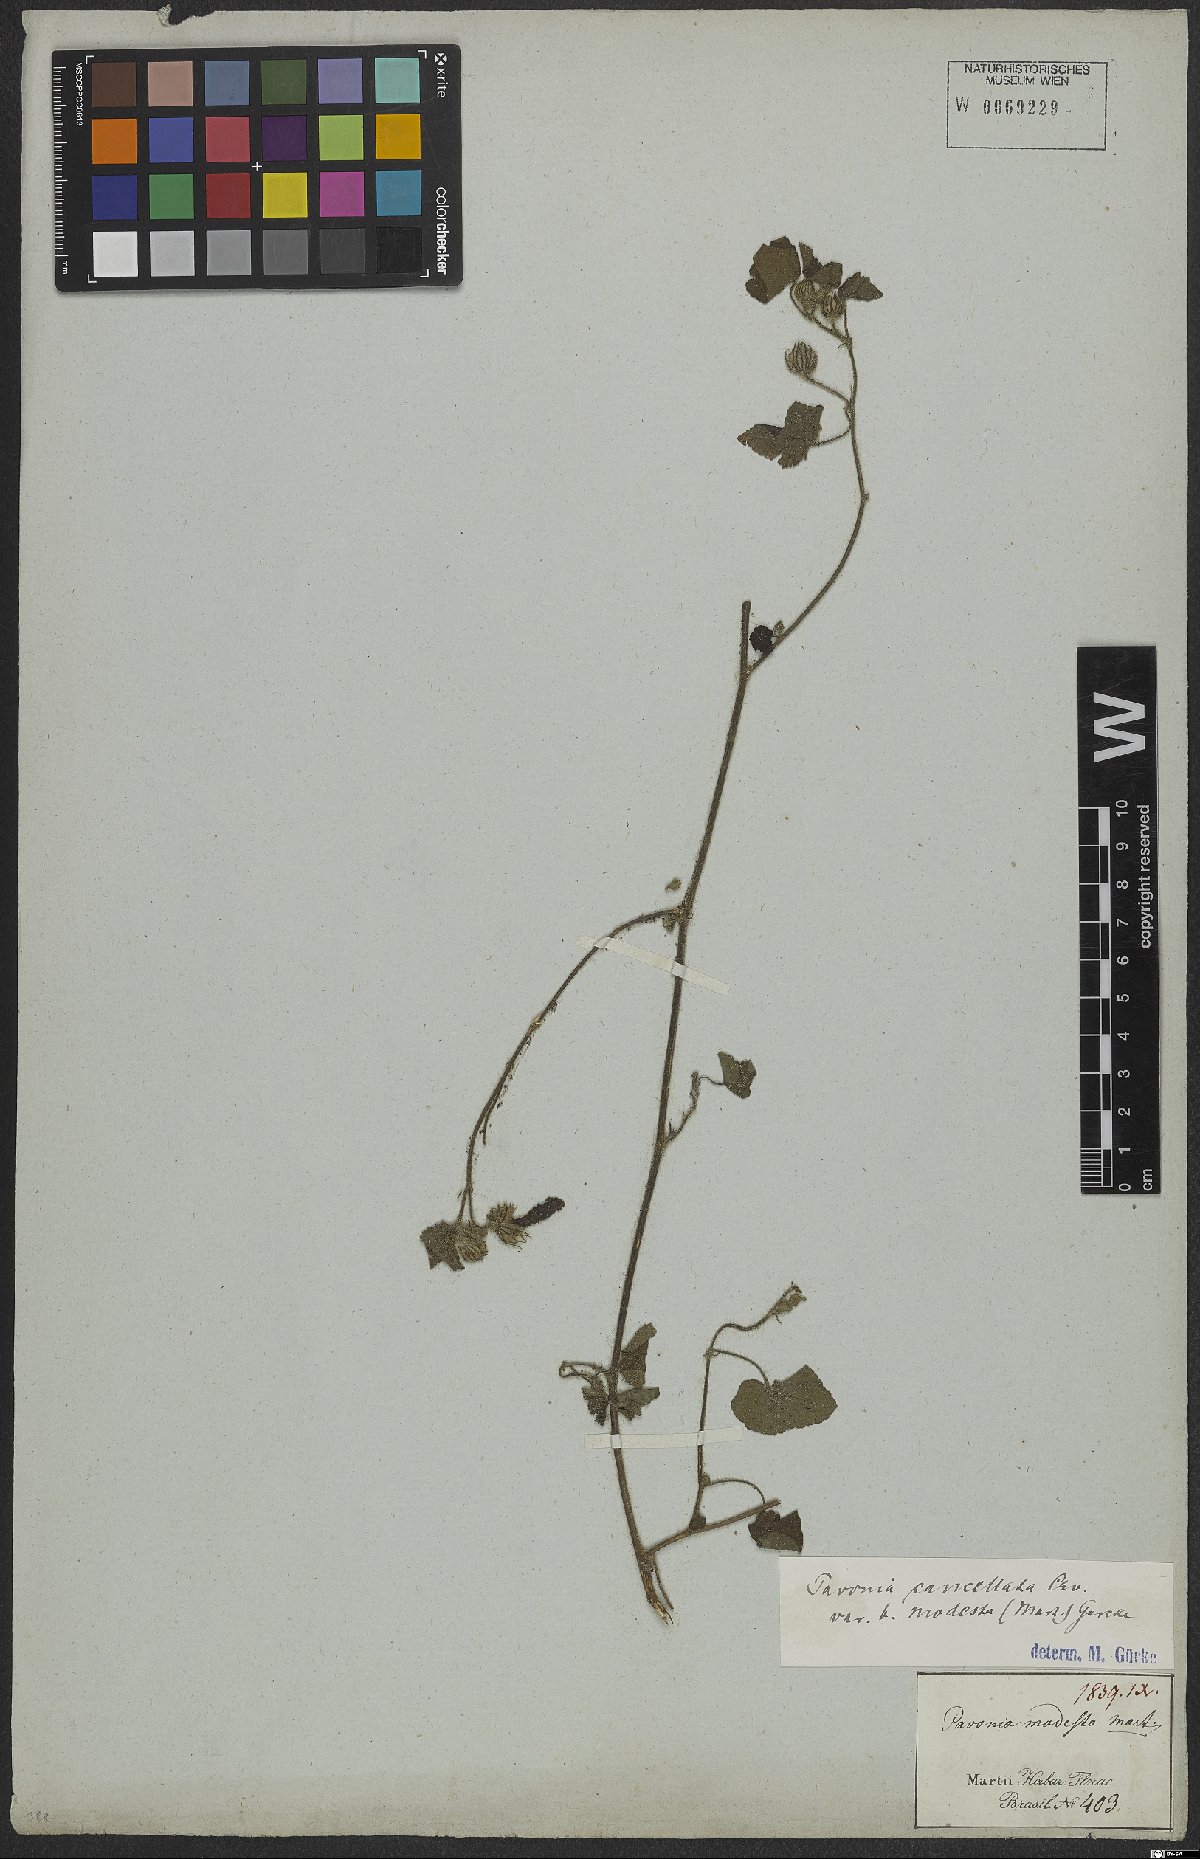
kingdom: Plantae
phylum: Tracheophyta
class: Magnoliopsida
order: Malvales
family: Malvaceae
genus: Pavonia
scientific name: Pavonia cancellata
